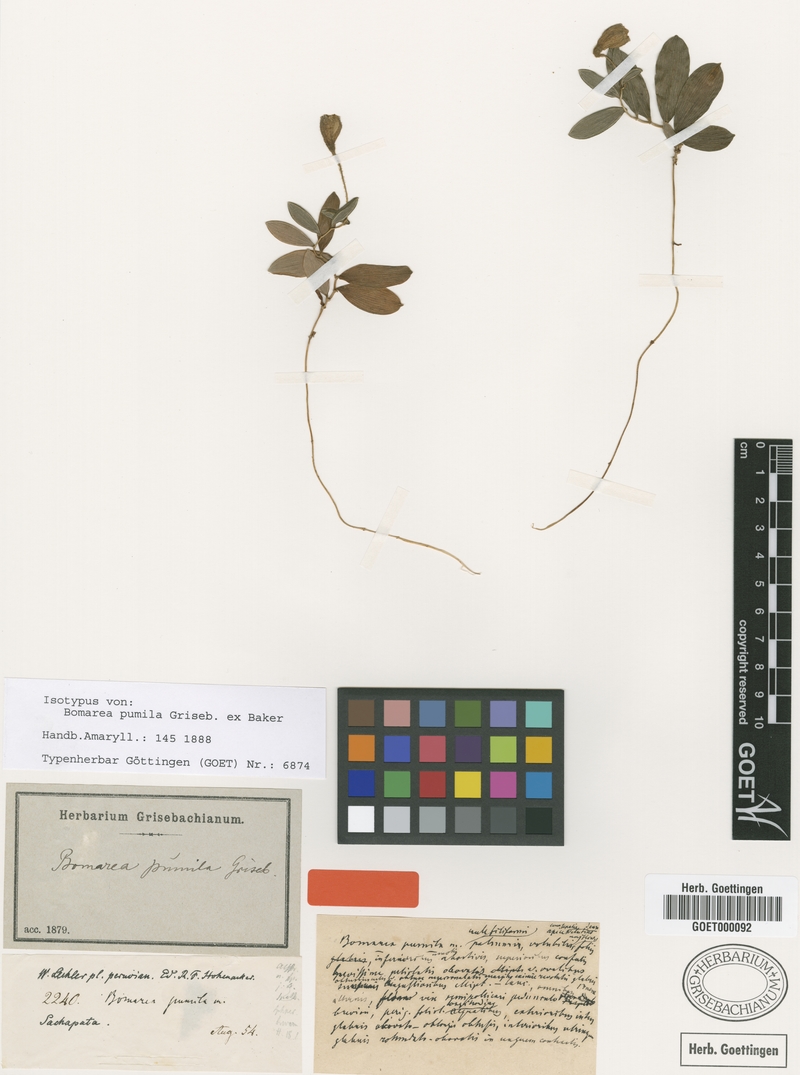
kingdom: Plantae
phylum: Tracheophyta
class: Liliopsida
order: Liliales
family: Alstroemeriaceae
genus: Bomarea
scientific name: Bomarea pumila
